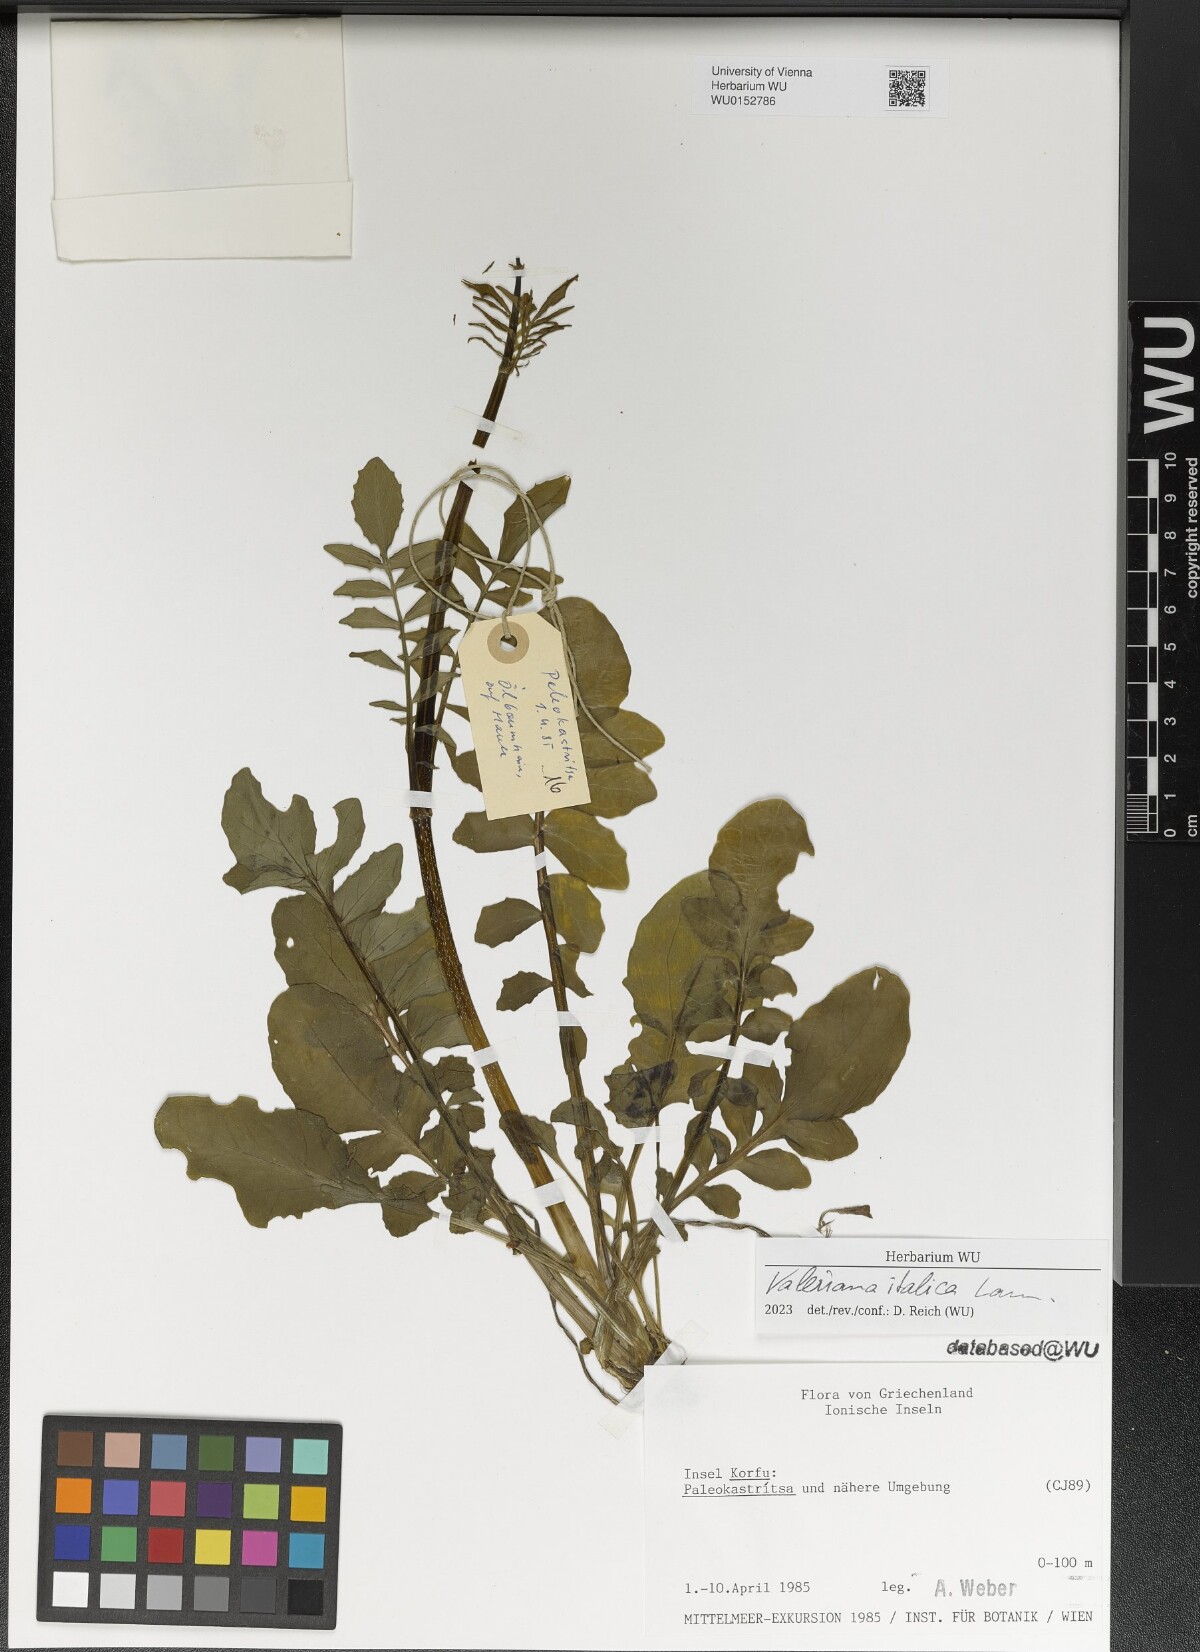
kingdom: Plantae
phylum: Tracheophyta
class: Magnoliopsida
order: Dipsacales
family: Caprifoliaceae
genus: Valeriana
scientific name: Valeriana dioscoridis
